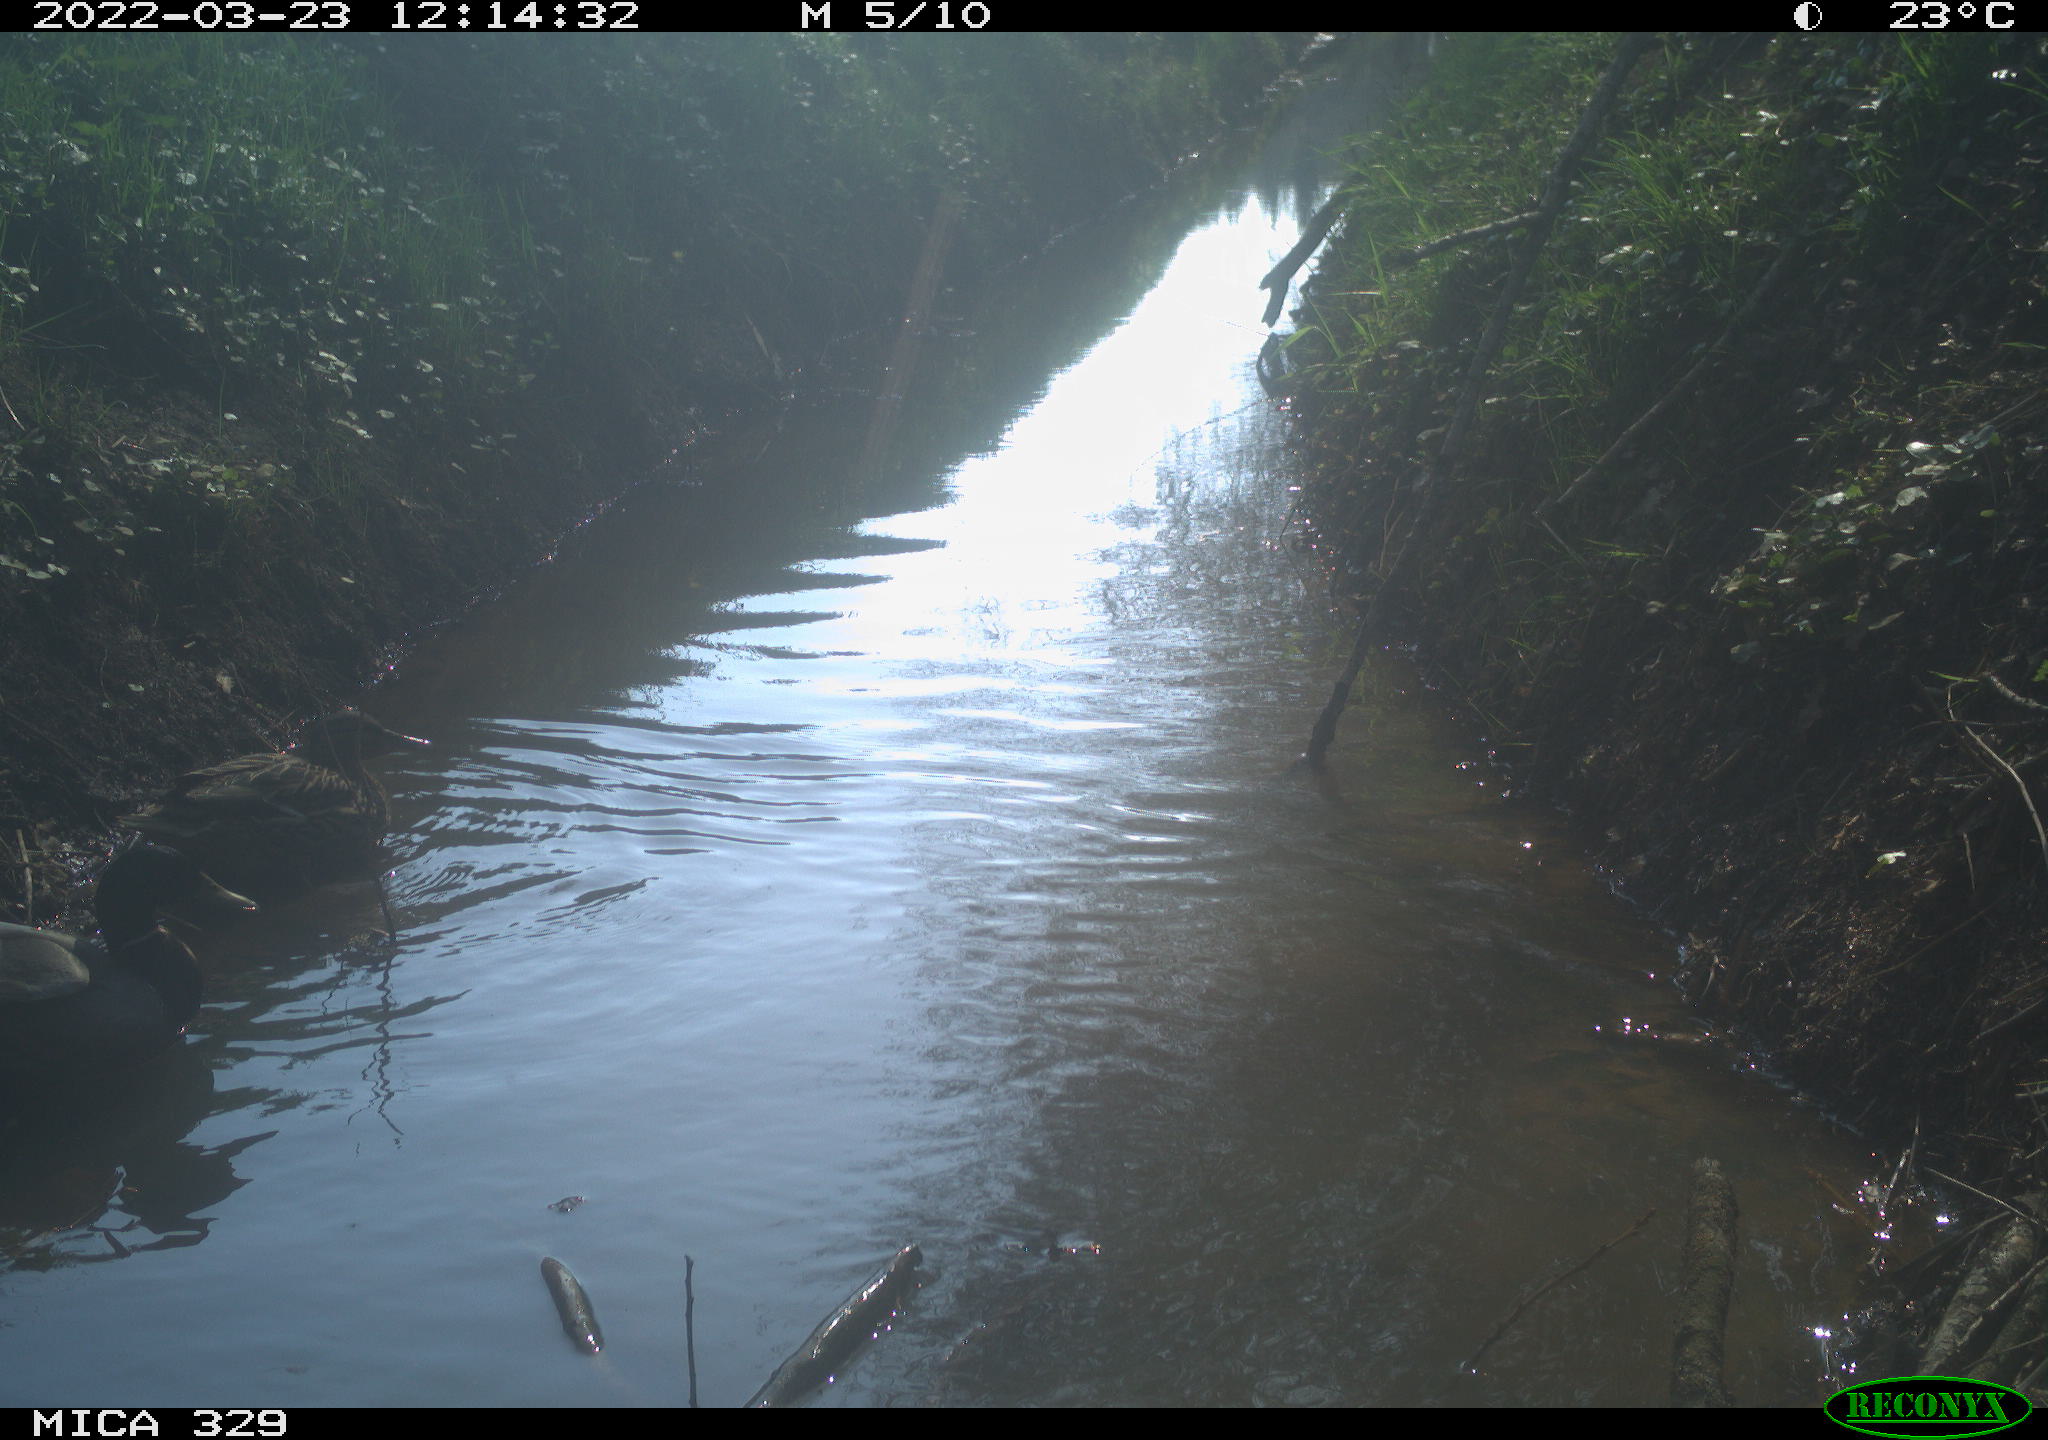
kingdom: Animalia
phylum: Chordata
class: Aves
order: Anseriformes
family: Anatidae
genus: Anas
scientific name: Anas platyrhynchos
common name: Mallard
